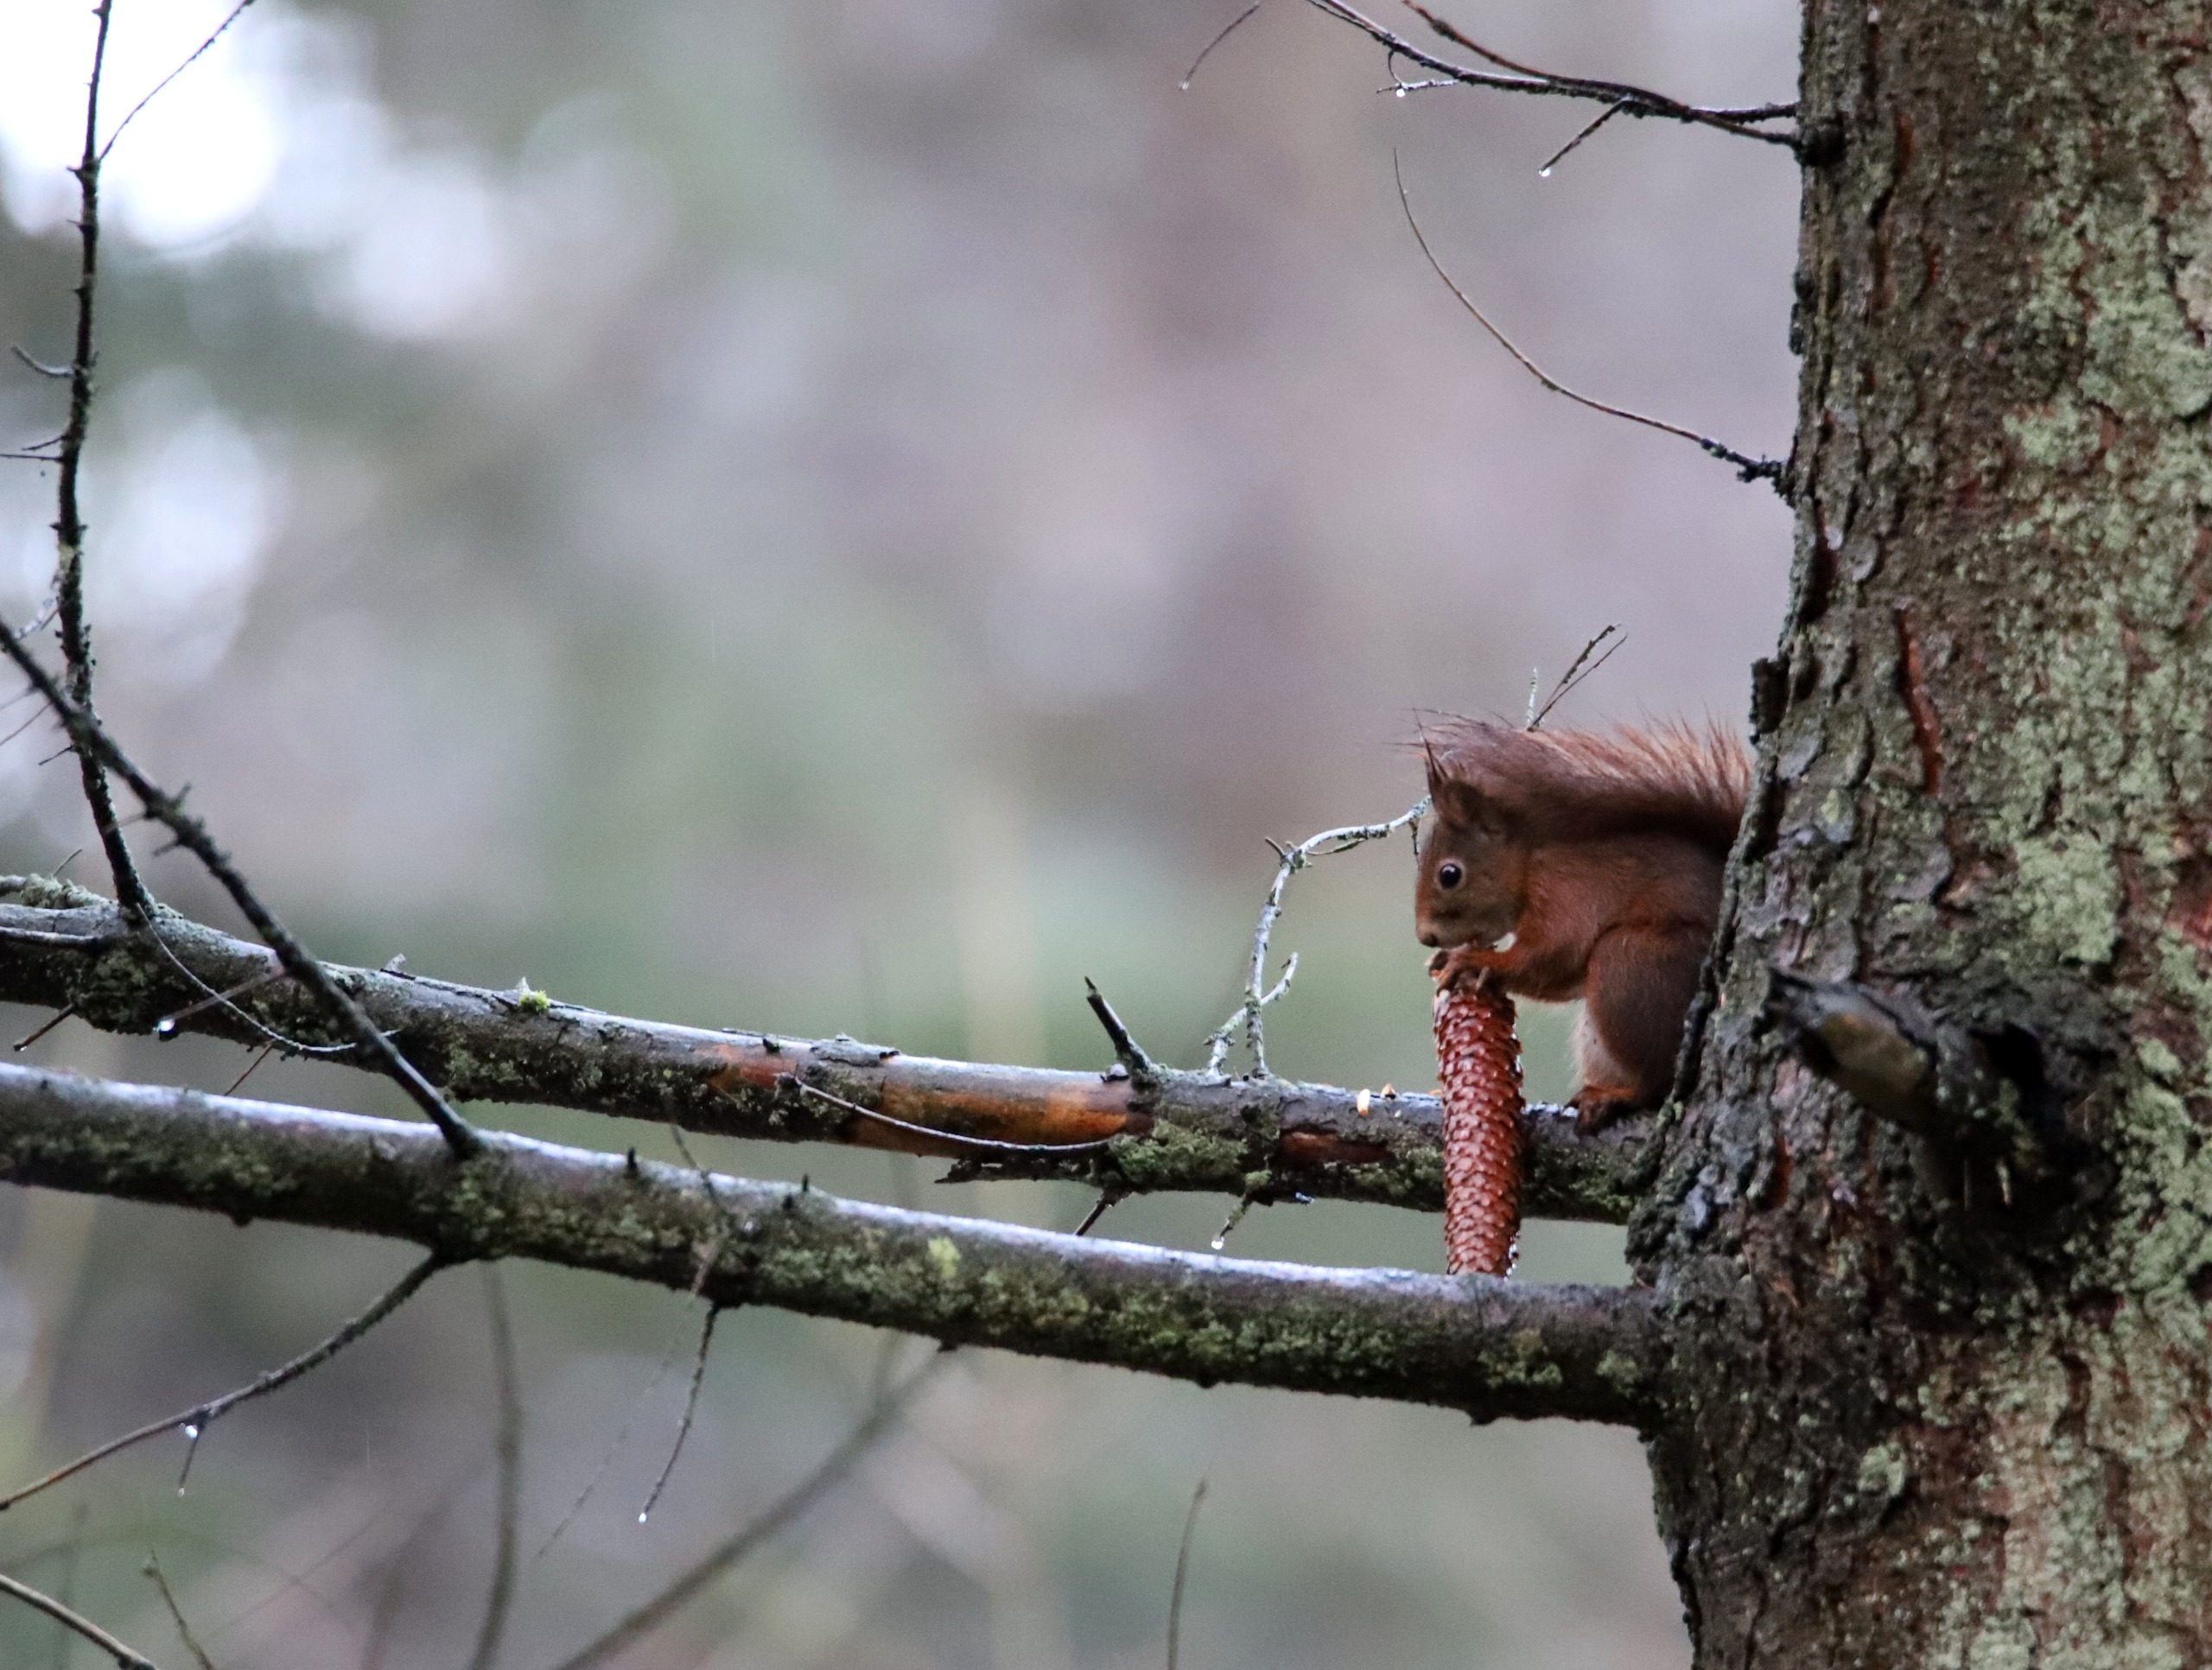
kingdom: Animalia
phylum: Chordata
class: Mammalia
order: Rodentia
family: Sciuridae
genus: Sciurus
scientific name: Sciurus vulgaris
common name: Egern
